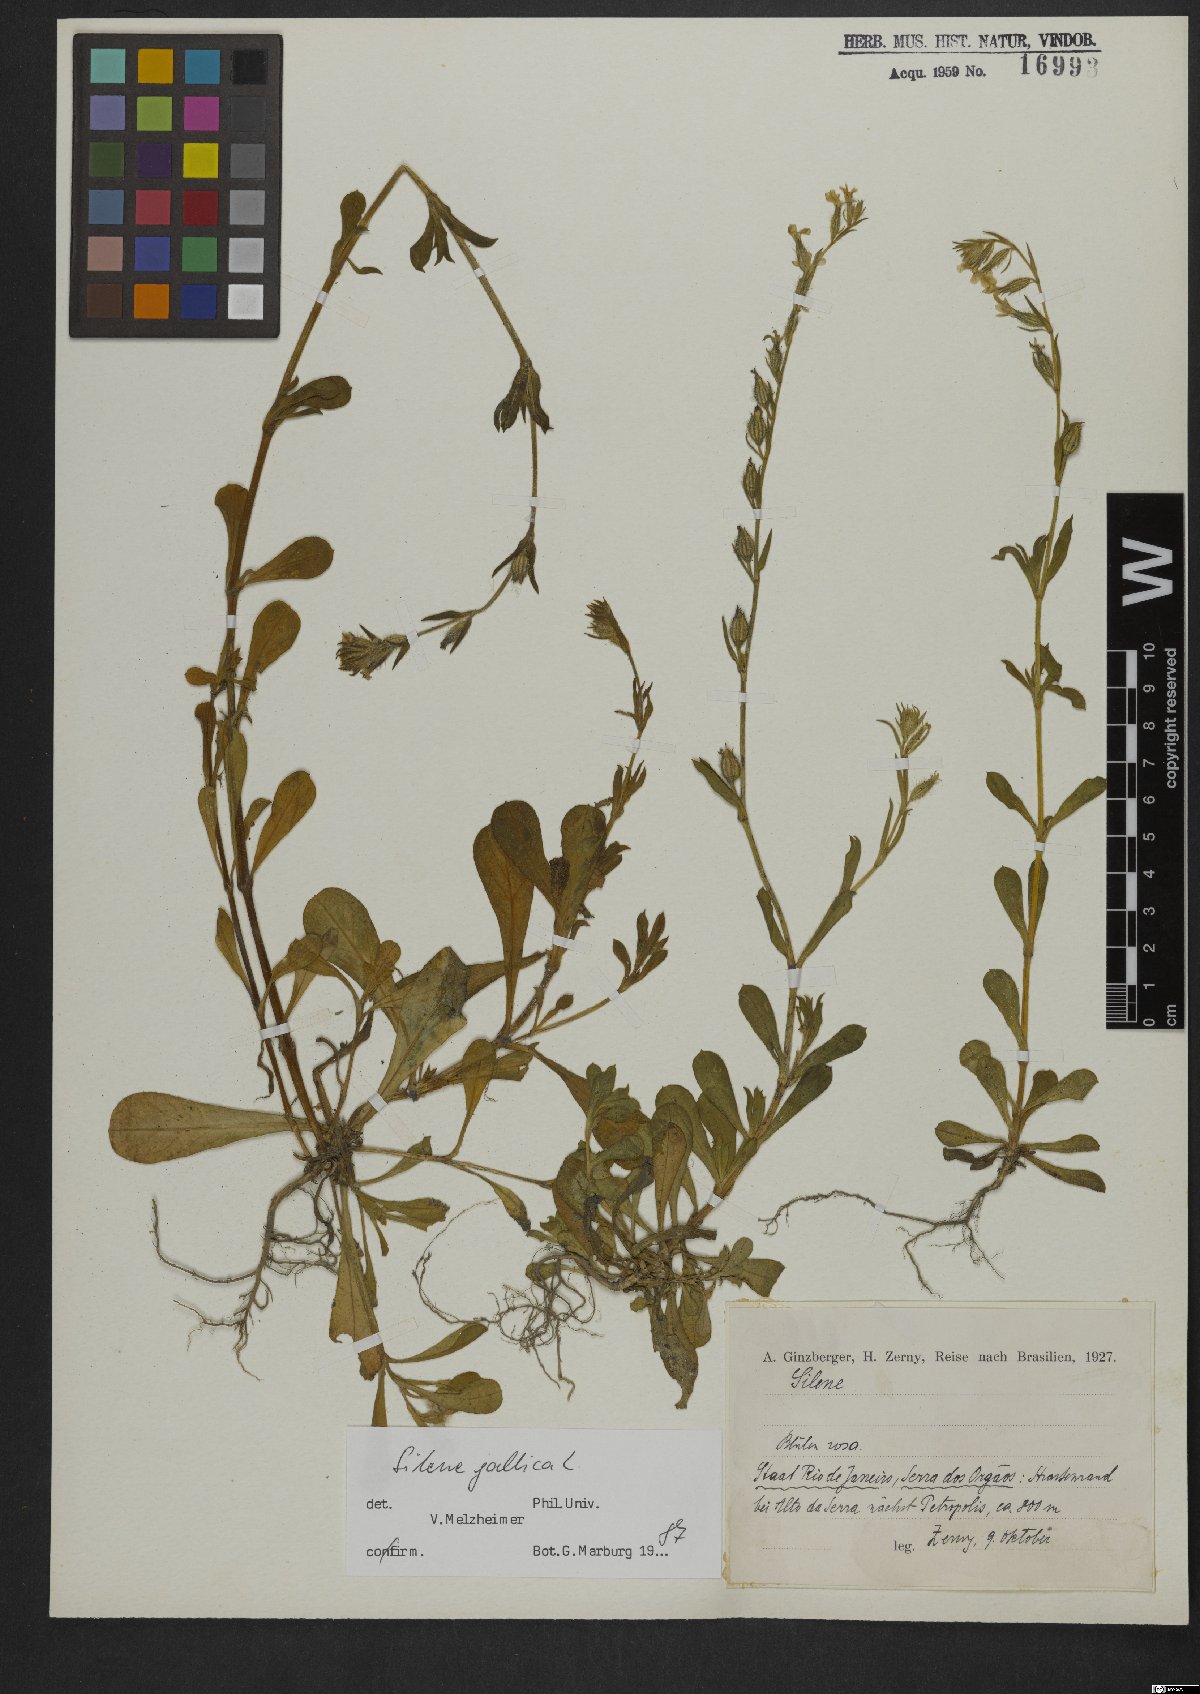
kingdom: Plantae
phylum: Tracheophyta
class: Magnoliopsida
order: Caryophyllales
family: Caryophyllaceae
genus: Silene
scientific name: Silene gallica
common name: Small-flowered catchfly
